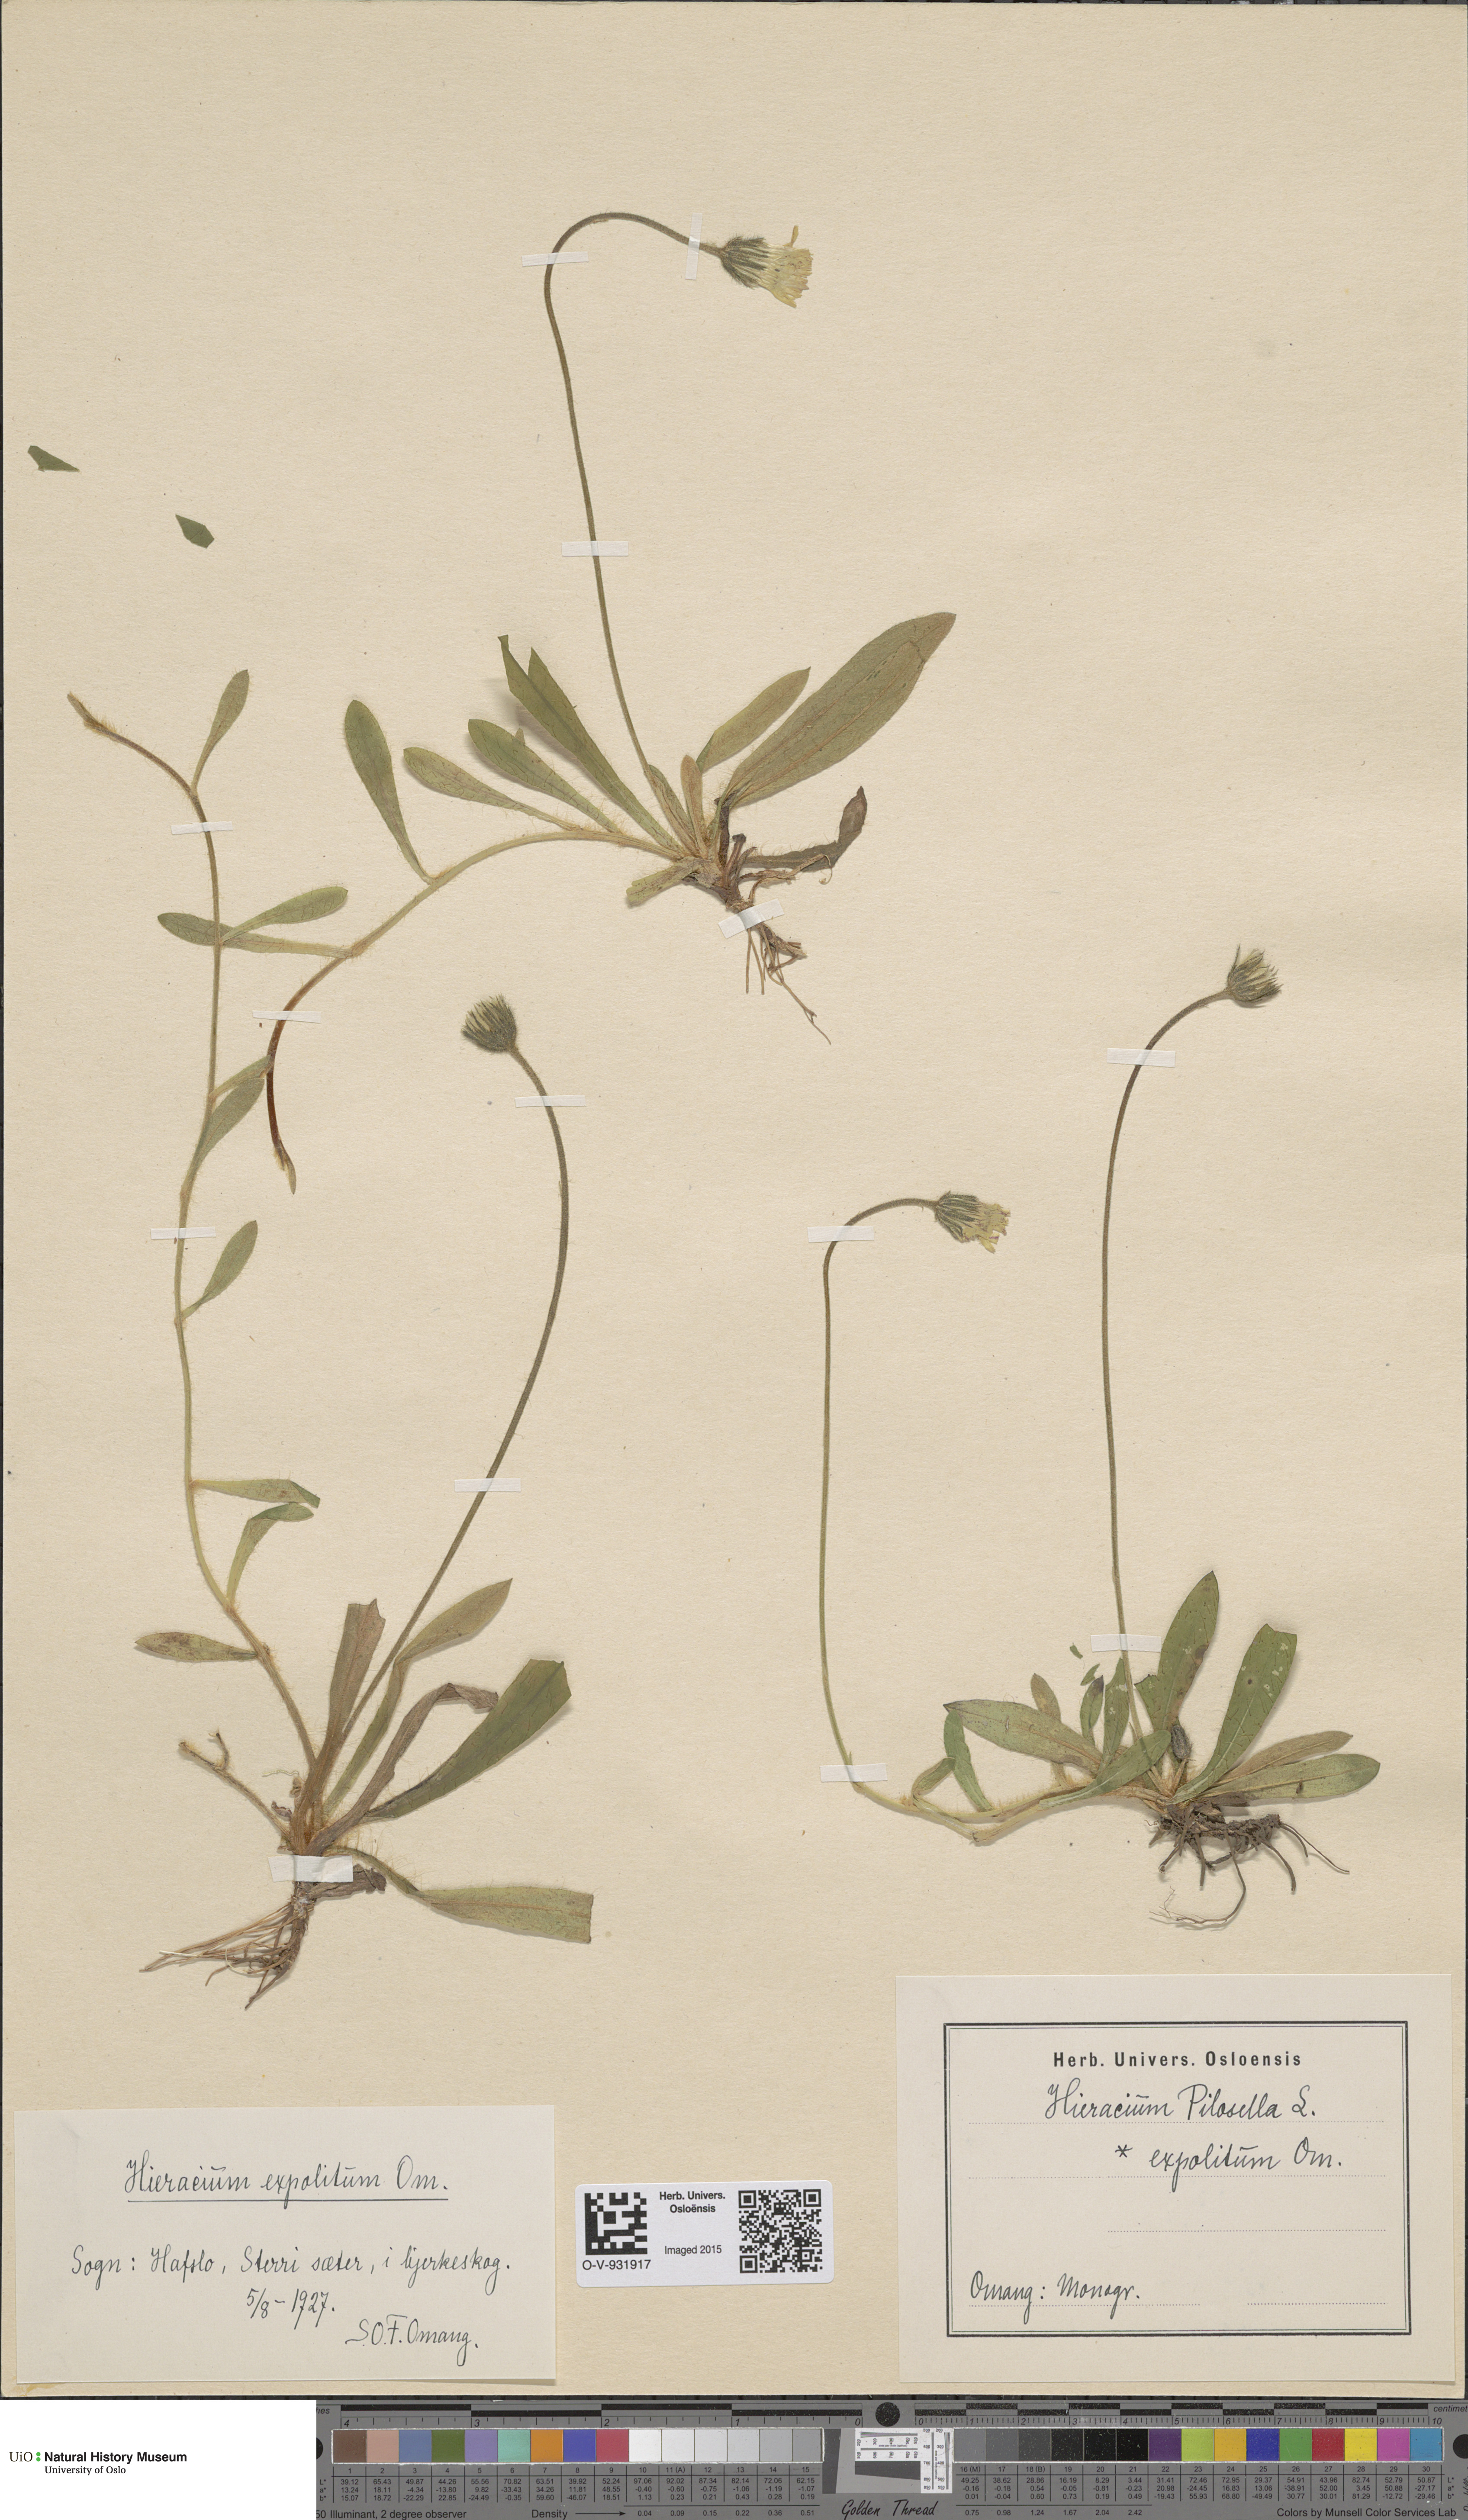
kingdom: Plantae
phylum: Tracheophyta
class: Magnoliopsida
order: Asterales
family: Asteraceae
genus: Pilosella
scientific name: Pilosella officinarum
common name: Mouse-ear hawkweed
